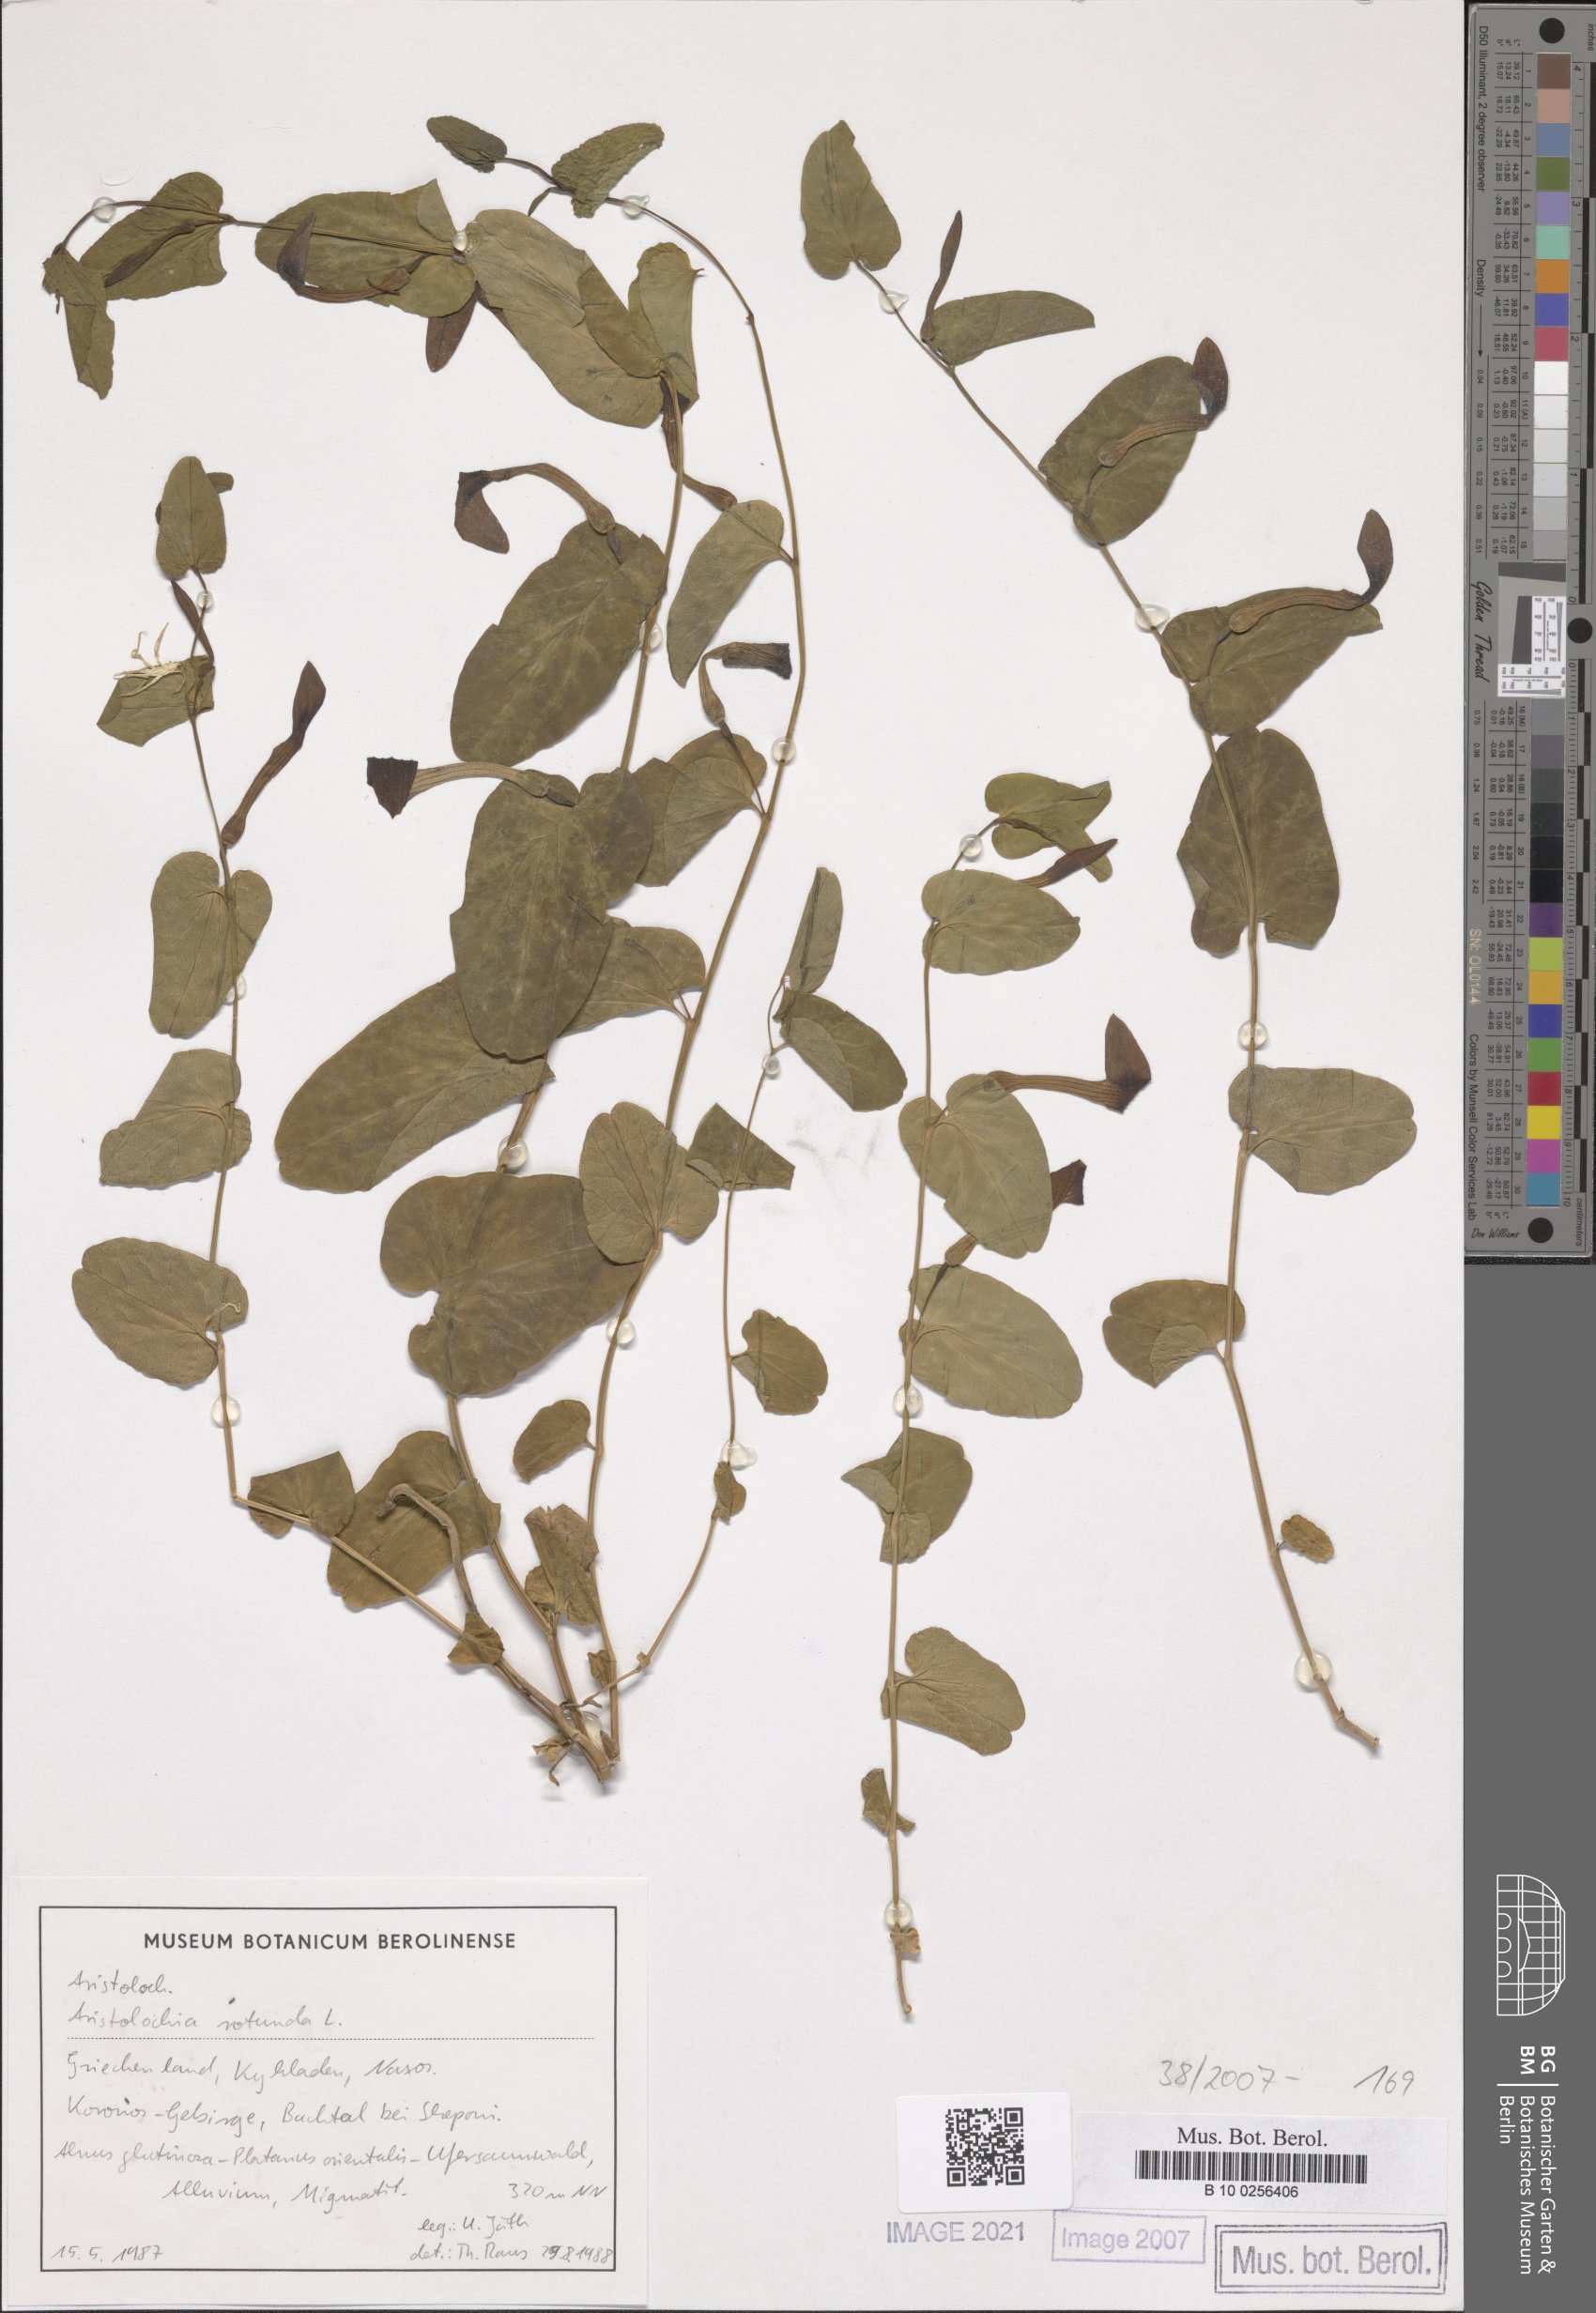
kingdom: Plantae
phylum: Tracheophyta
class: Magnoliopsida
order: Piperales
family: Aristolochiaceae
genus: Aristolochia
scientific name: Aristolochia rotunda
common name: Smearwort
